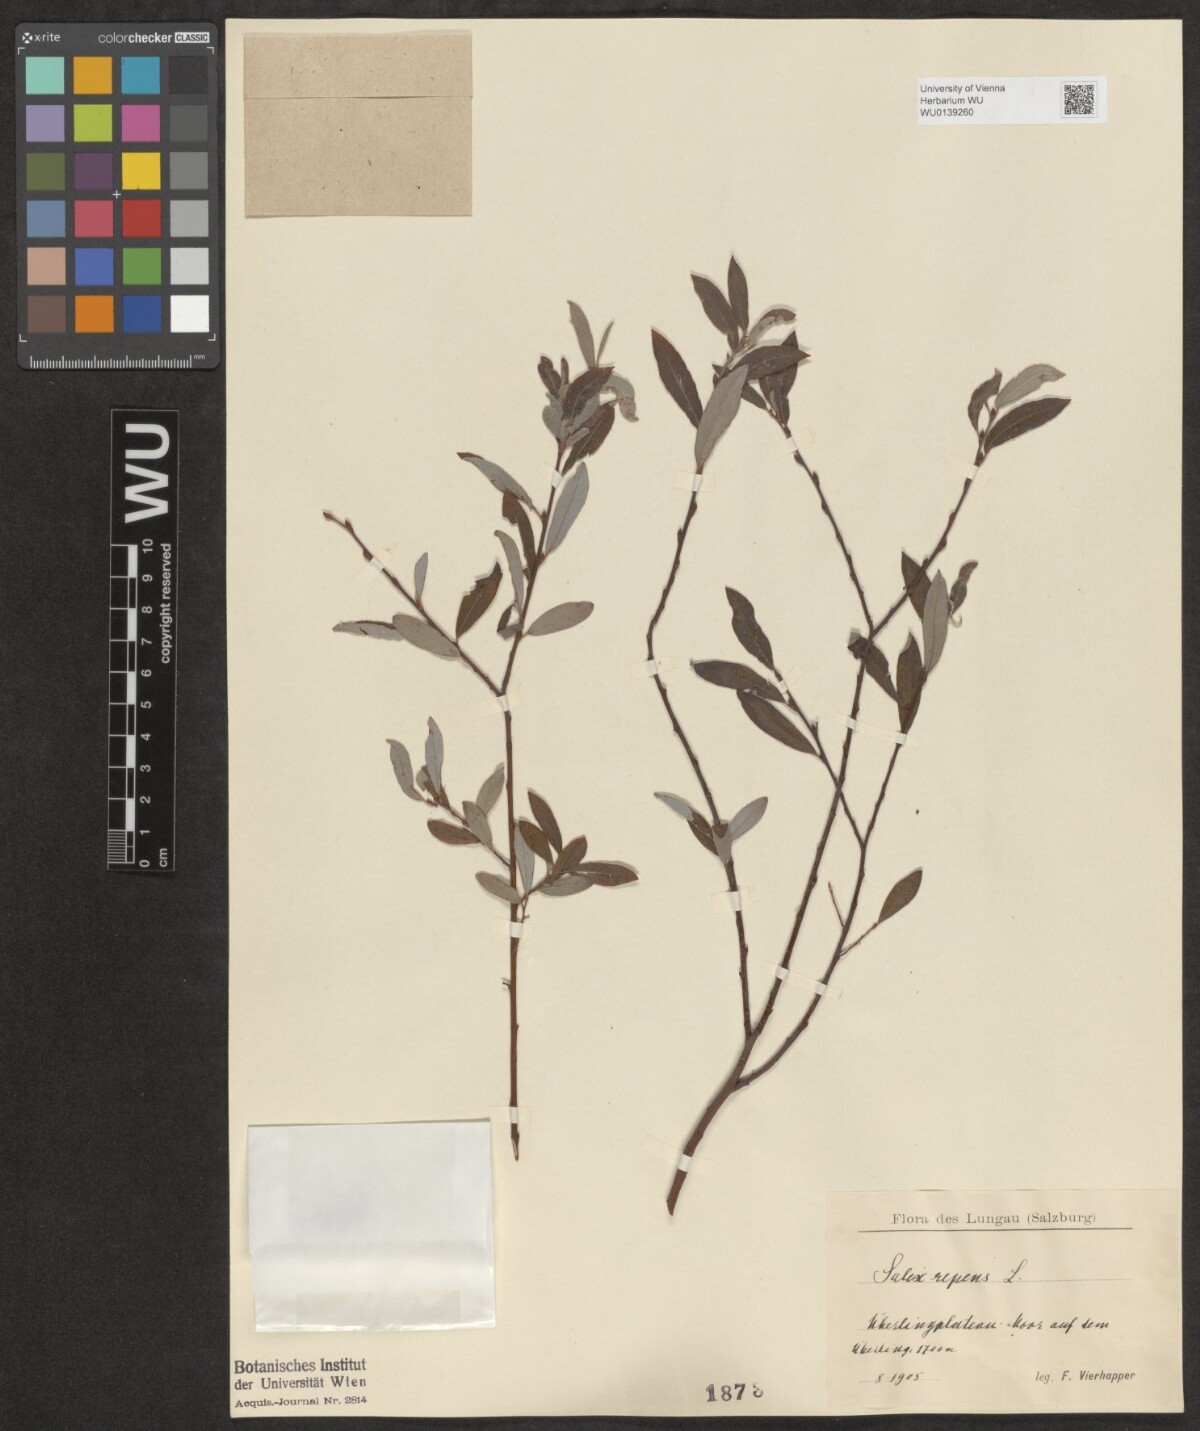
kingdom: Plantae
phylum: Tracheophyta
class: Magnoliopsida
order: Malpighiales
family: Salicaceae
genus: Salix
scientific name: Salix repens
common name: Creeping willow
